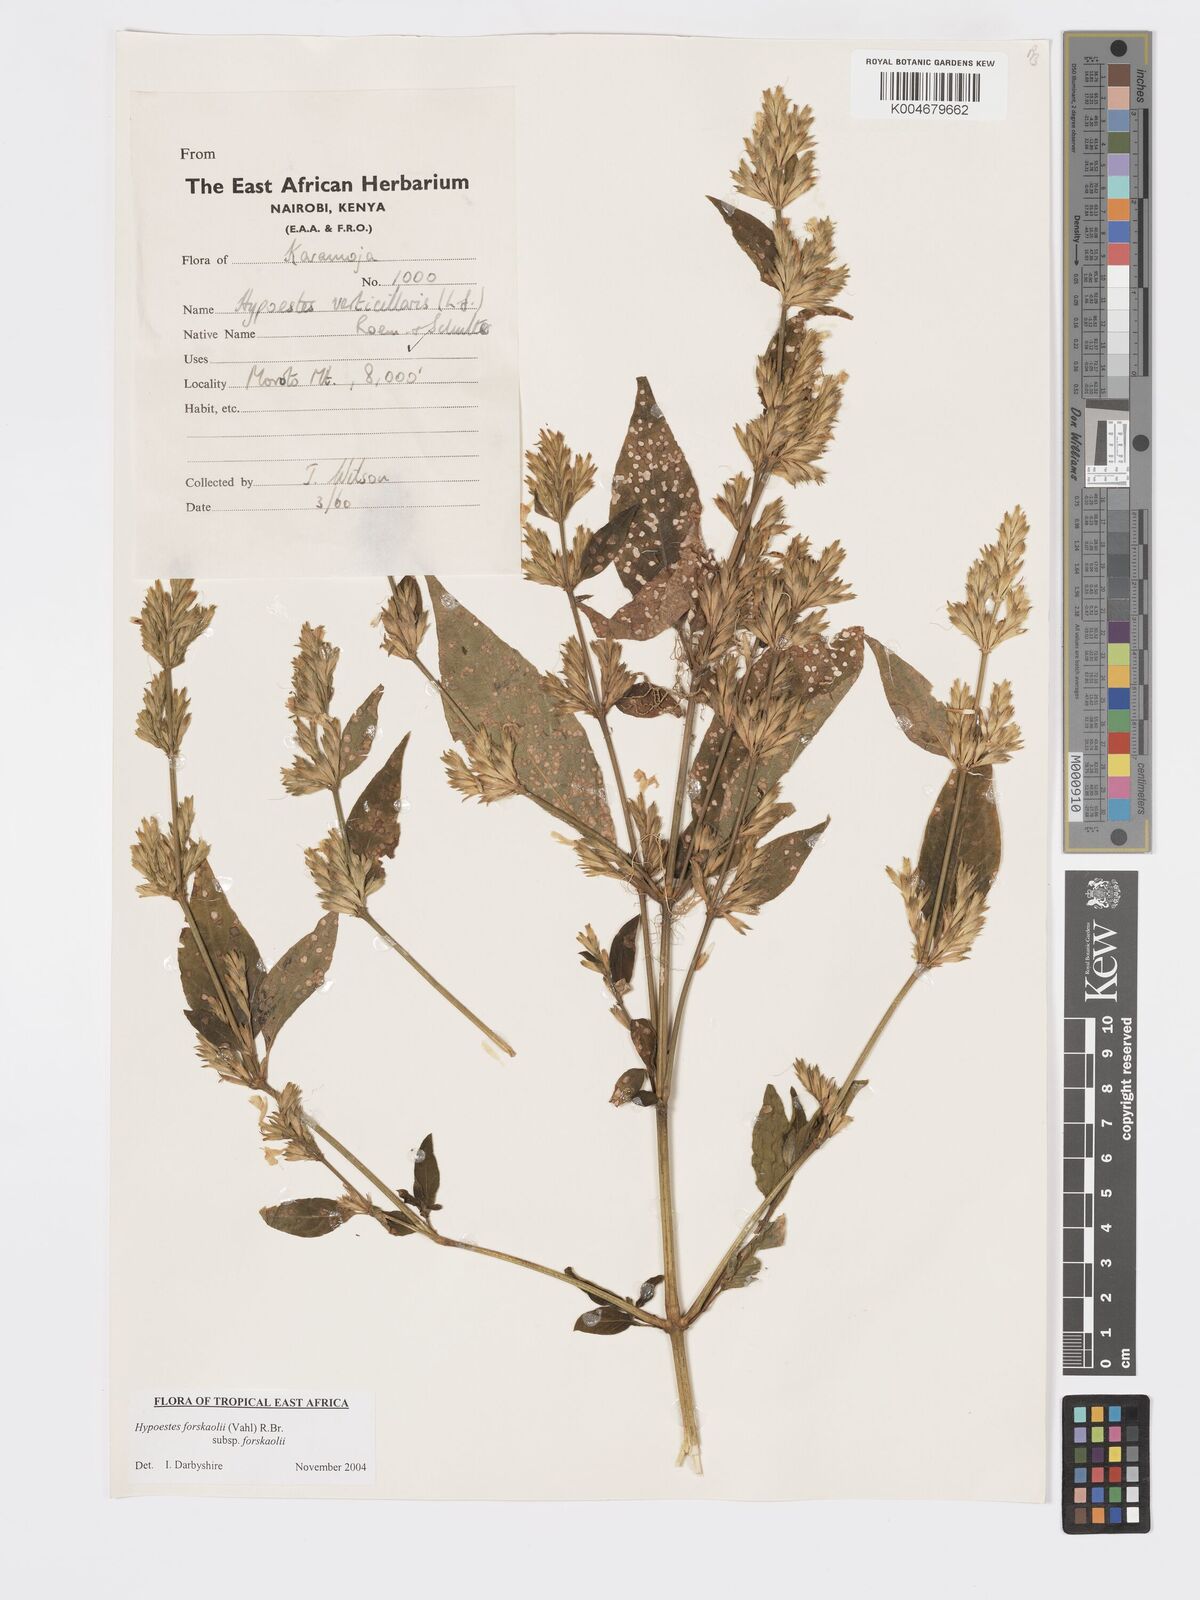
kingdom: Plantae
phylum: Tracheophyta
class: Magnoliopsida
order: Lamiales
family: Acanthaceae
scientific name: Acanthaceae
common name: Acanthaceae
